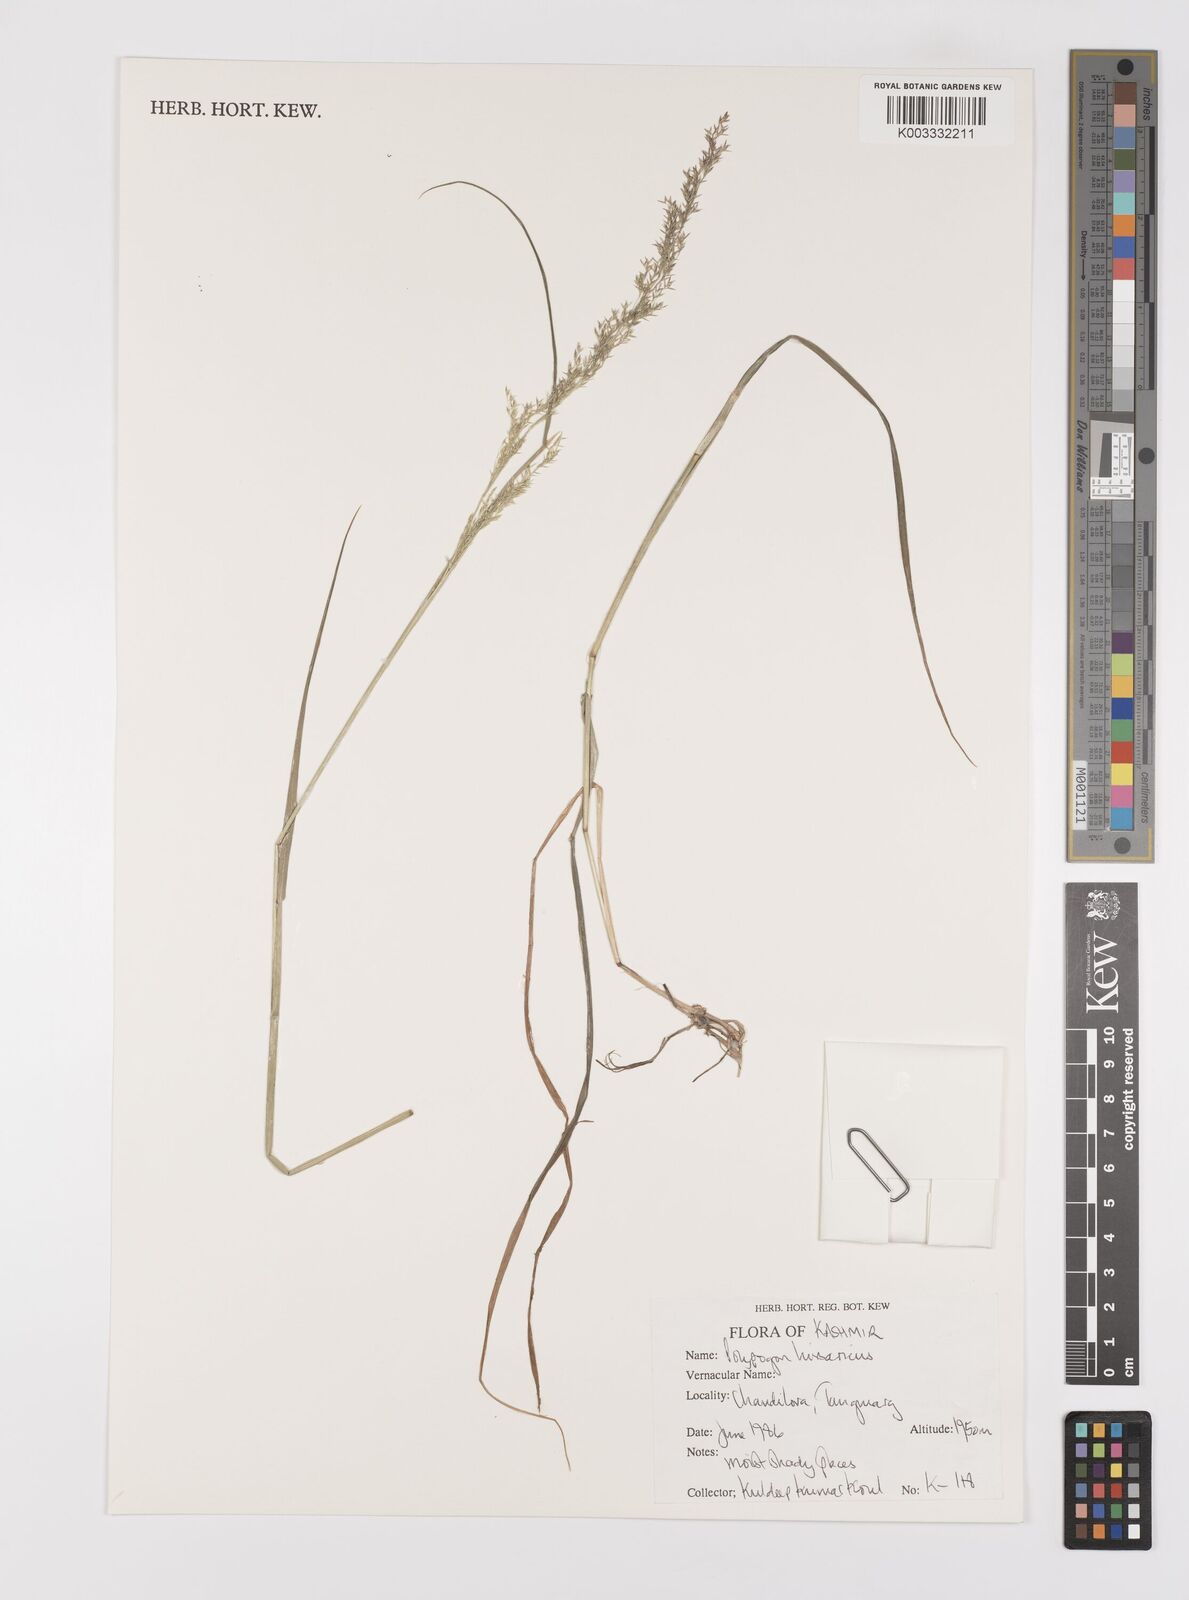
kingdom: Plantae
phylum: Tracheophyta
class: Liliopsida
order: Poales
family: Poaceae
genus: Polypogon
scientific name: Polypogon hissaricus
